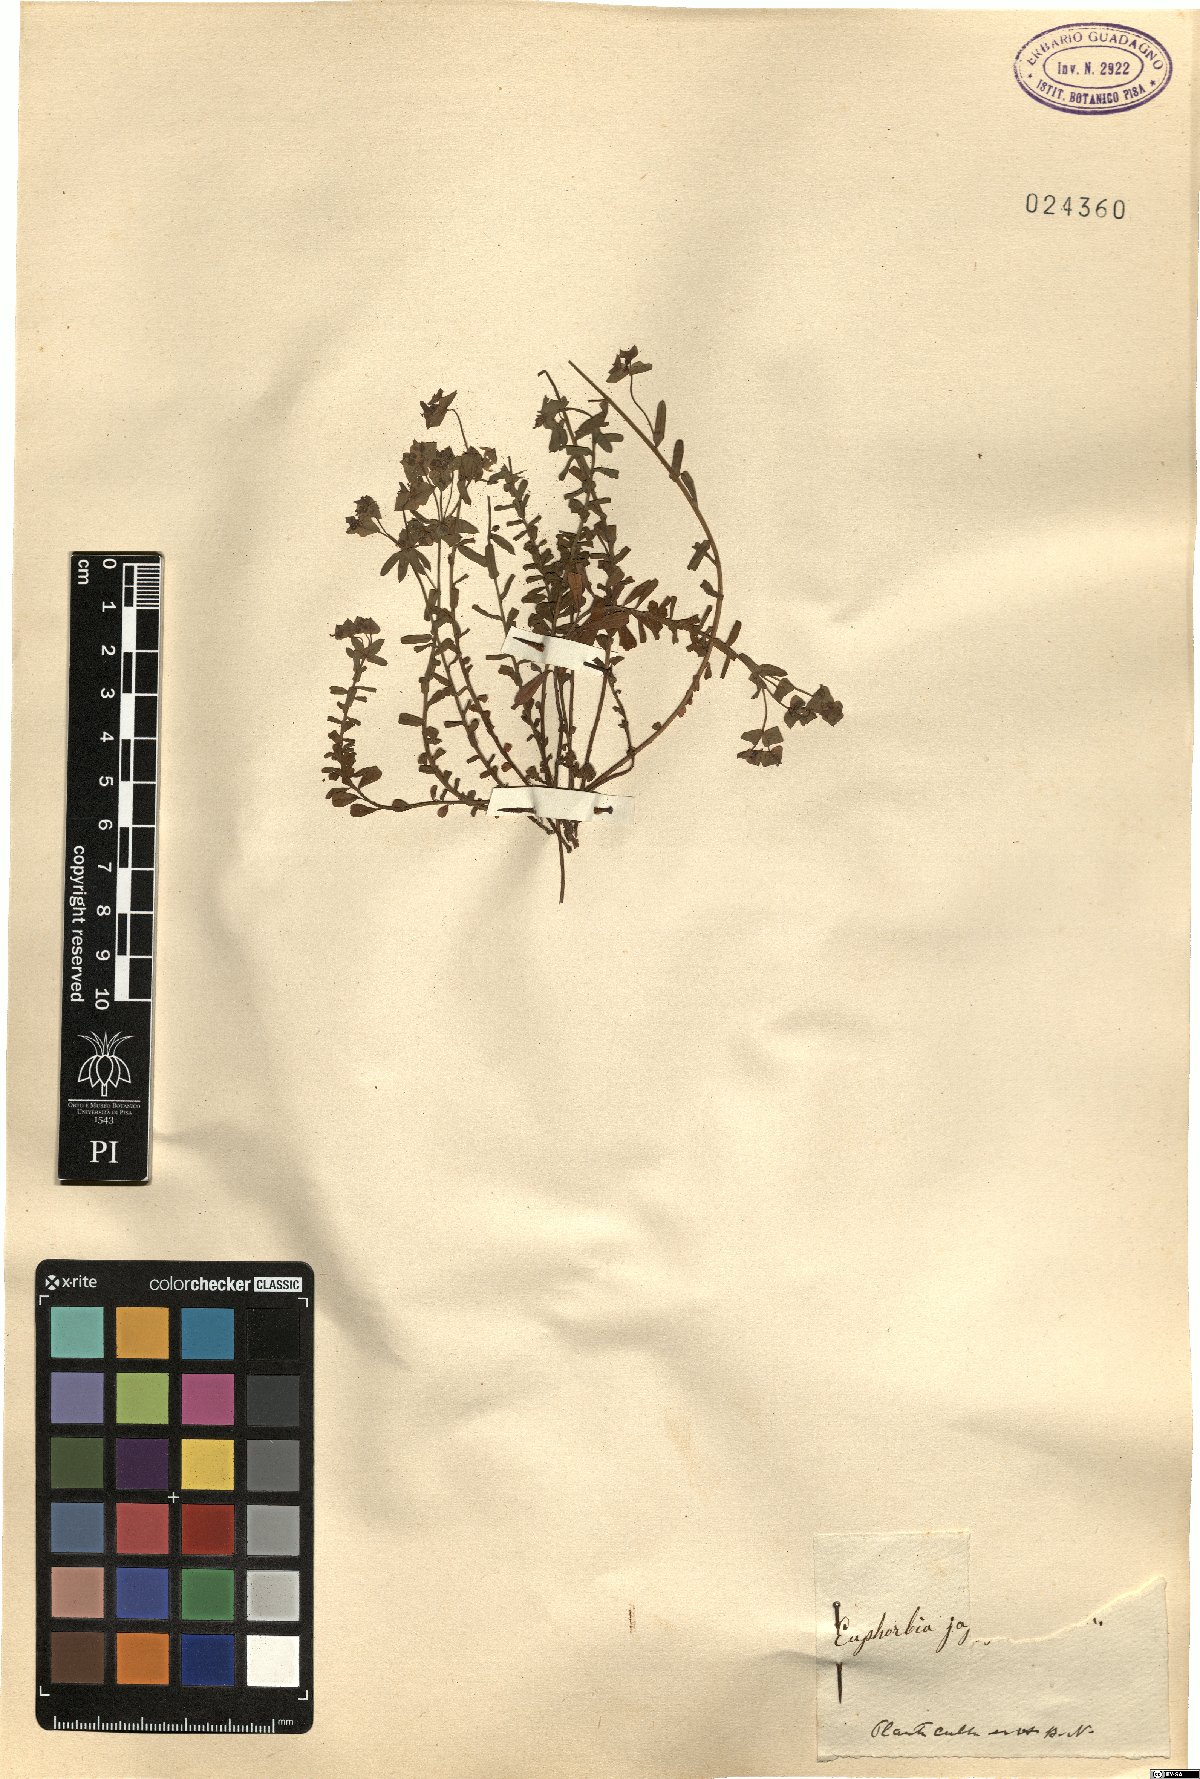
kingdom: Plantae
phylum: Tracheophyta
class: Magnoliopsida
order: Malpighiales
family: Euphorbiaceae
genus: Euphorbia
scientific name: Euphorbia
